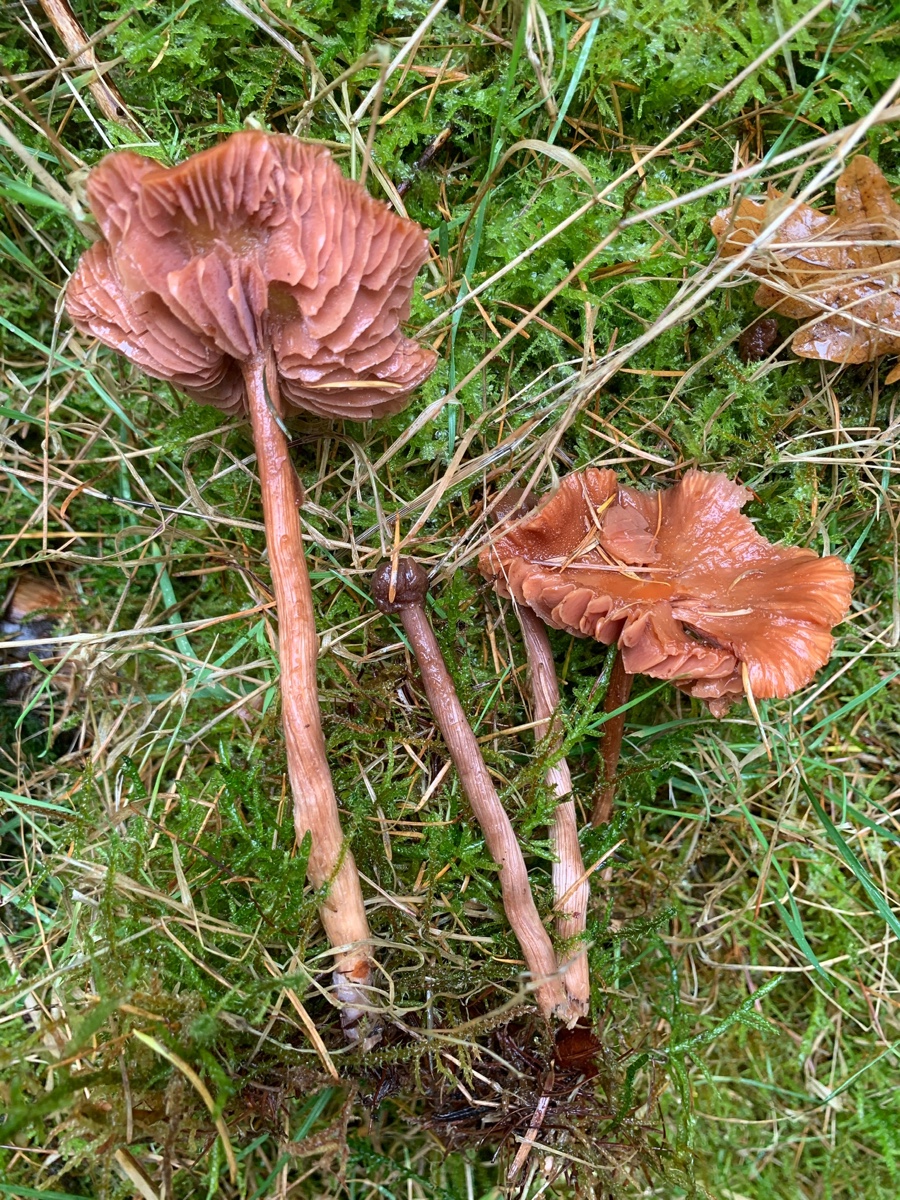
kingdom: Fungi
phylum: Basidiomycota
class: Agaricomycetes
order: Agaricales
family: Hydnangiaceae
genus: Laccaria
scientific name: Laccaria proxima
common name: stor ametysthat
